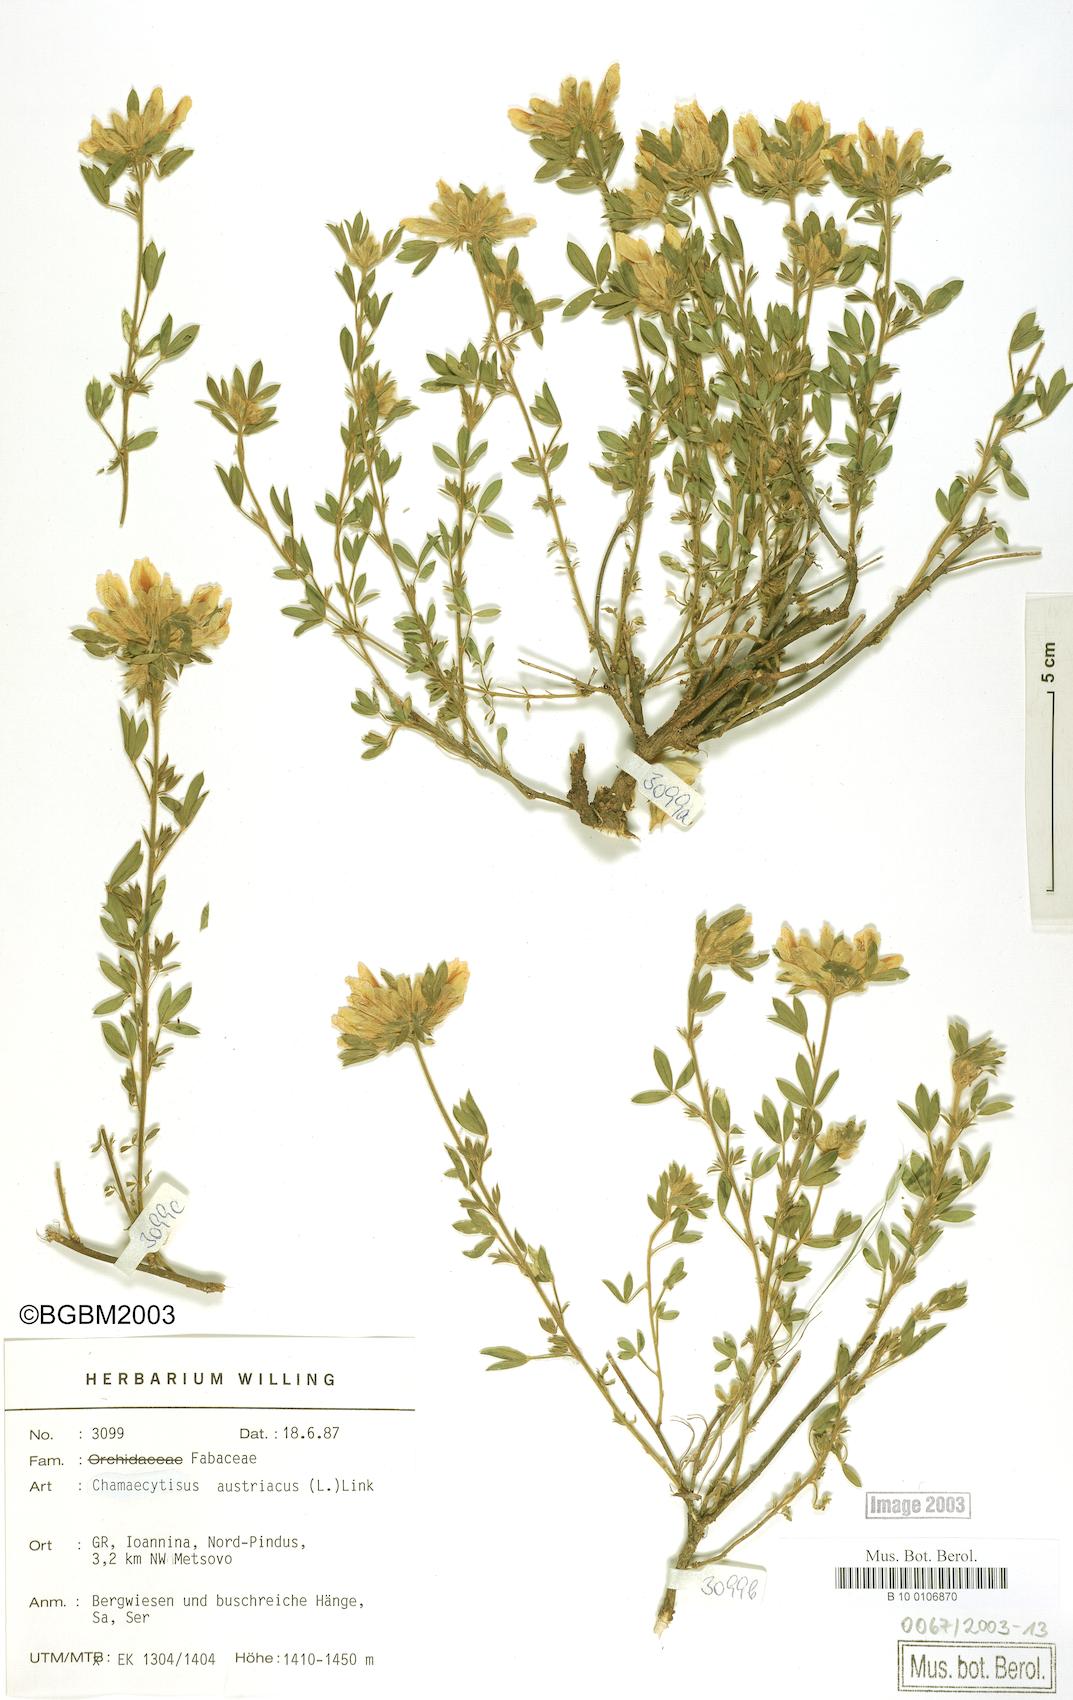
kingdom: Plantae
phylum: Tracheophyta
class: Magnoliopsida
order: Fabales
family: Fabaceae
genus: Chamaecytisus
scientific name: Chamaecytisus austriacus
